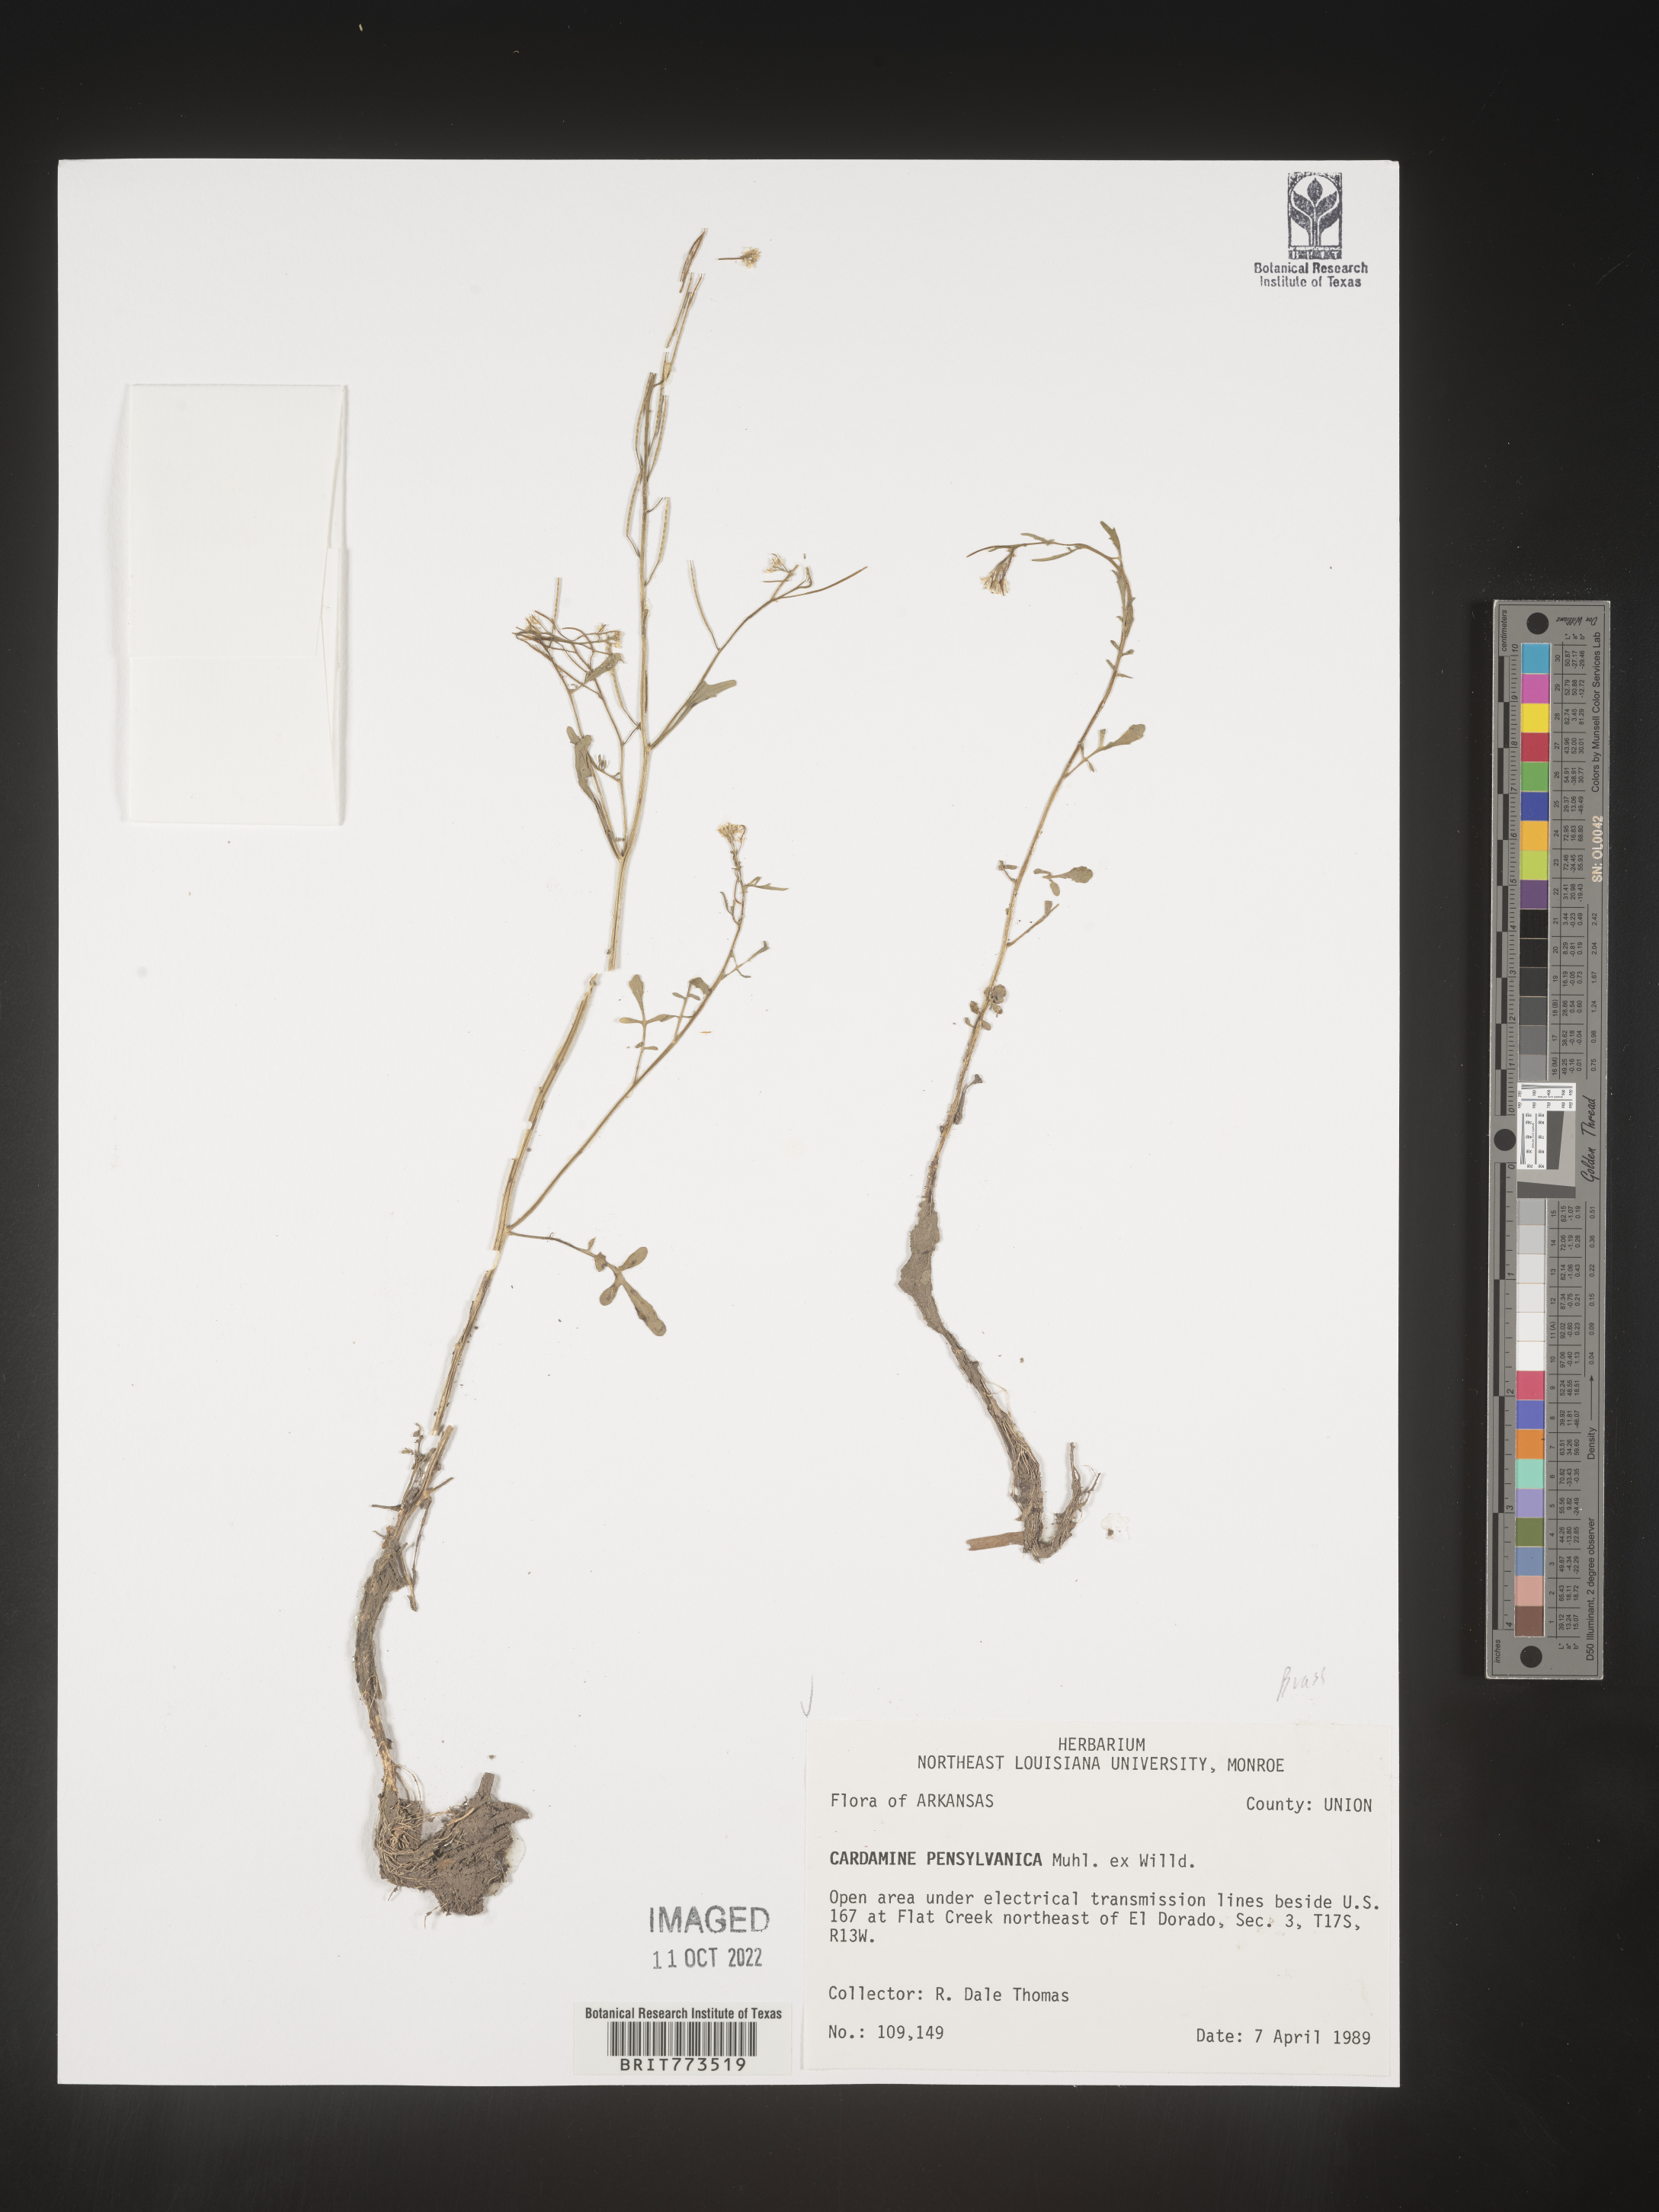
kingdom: Plantae
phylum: Tracheophyta
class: Magnoliopsida
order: Brassicales
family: Brassicaceae
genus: Cardamine
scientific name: Cardamine pensylvanica
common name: Pennsylvania bittercress
